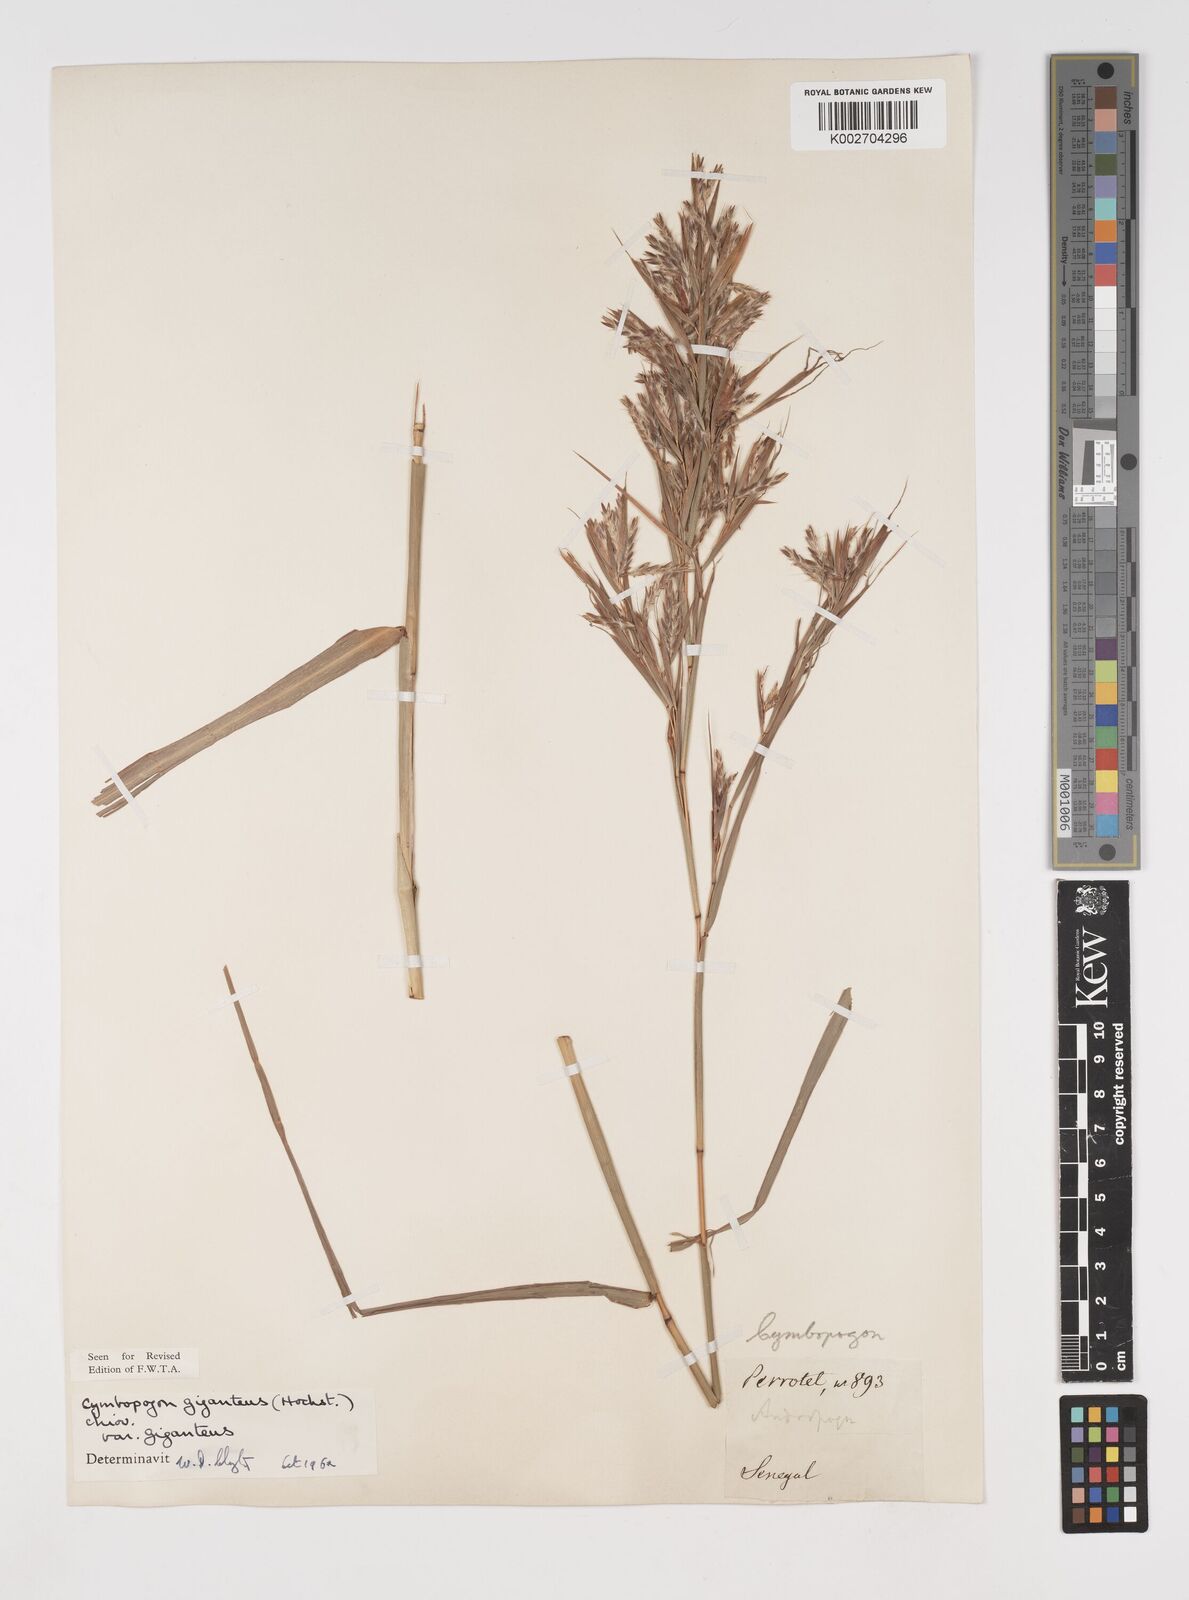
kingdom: Plantae
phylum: Tracheophyta
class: Liliopsida
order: Poales
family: Poaceae
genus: Cymbopogon
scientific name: Cymbopogon giganteus
